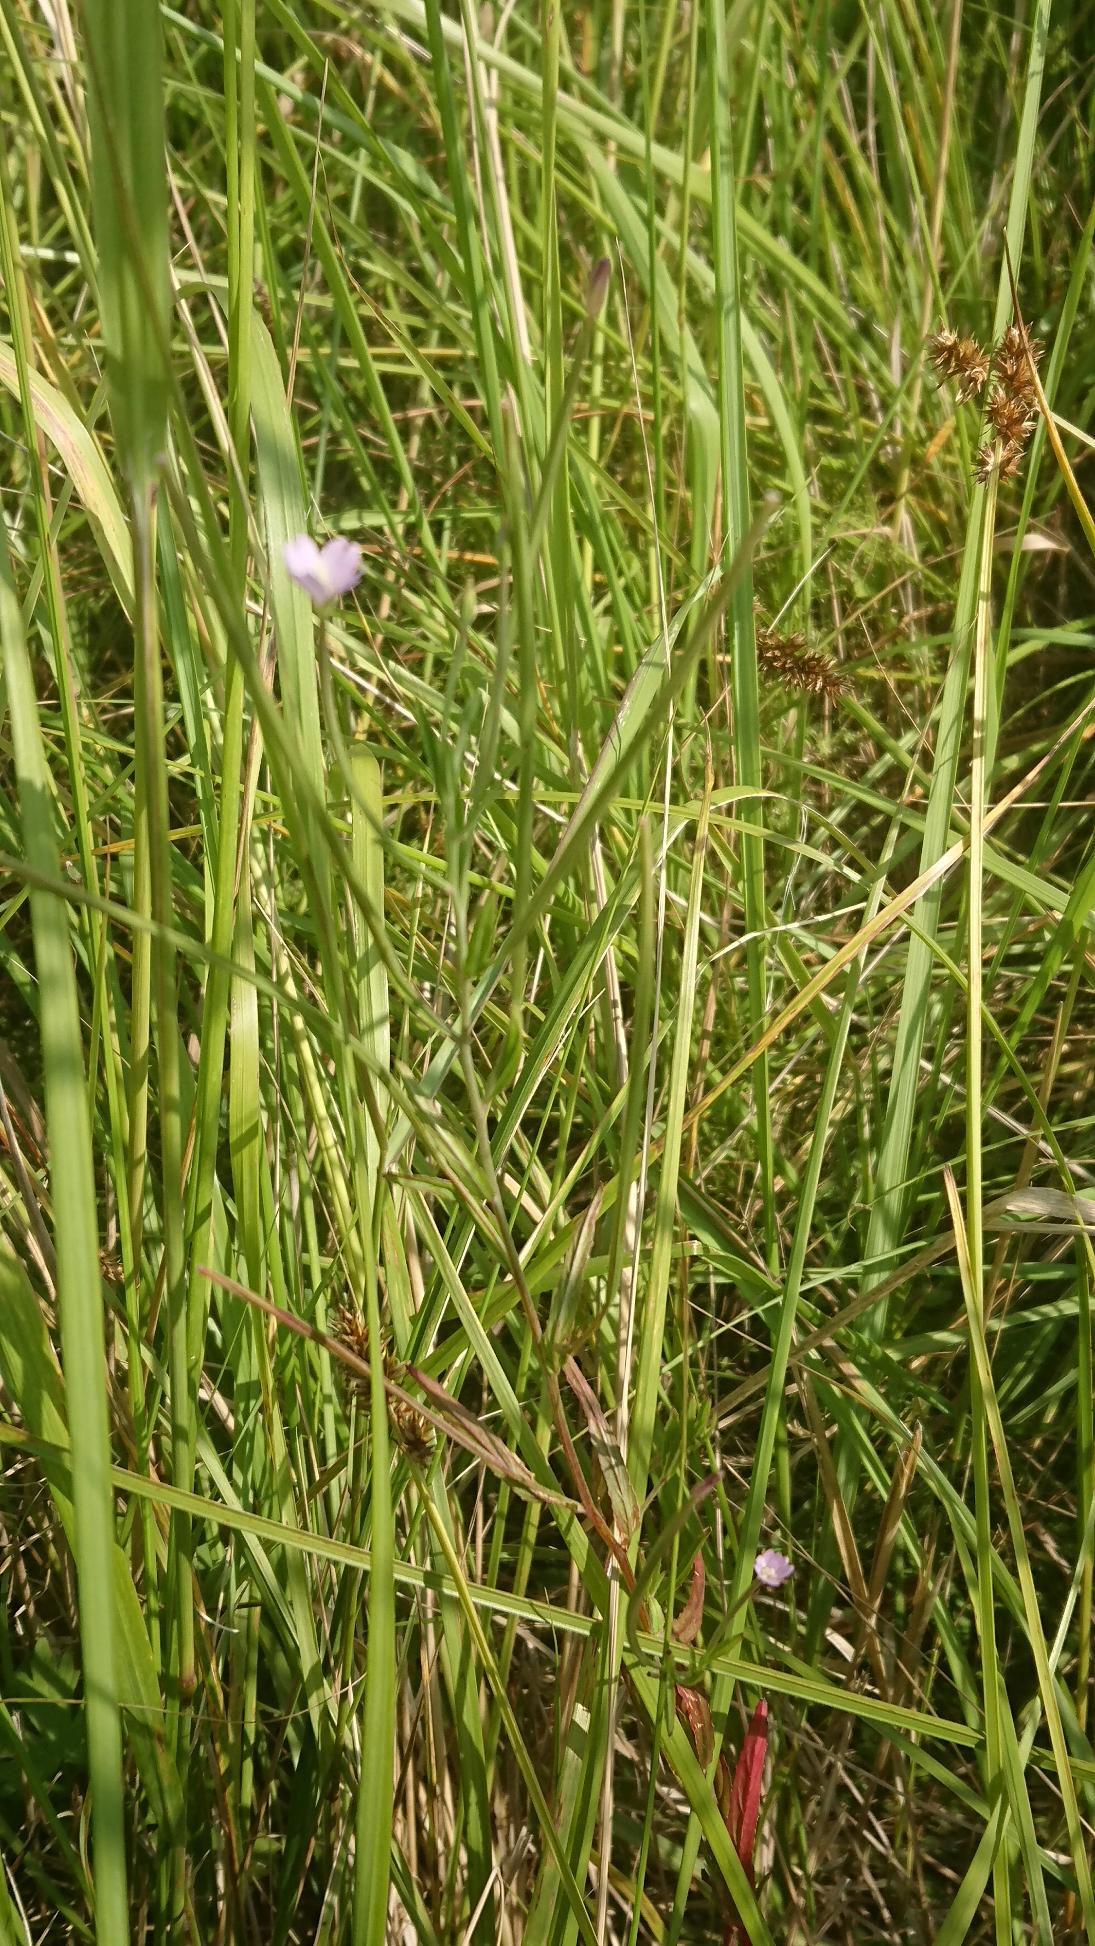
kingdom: Plantae
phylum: Tracheophyta
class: Magnoliopsida
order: Myrtales
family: Onagraceae
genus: Epilobium
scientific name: Epilobium tetragonum
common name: Kantet dueurt
